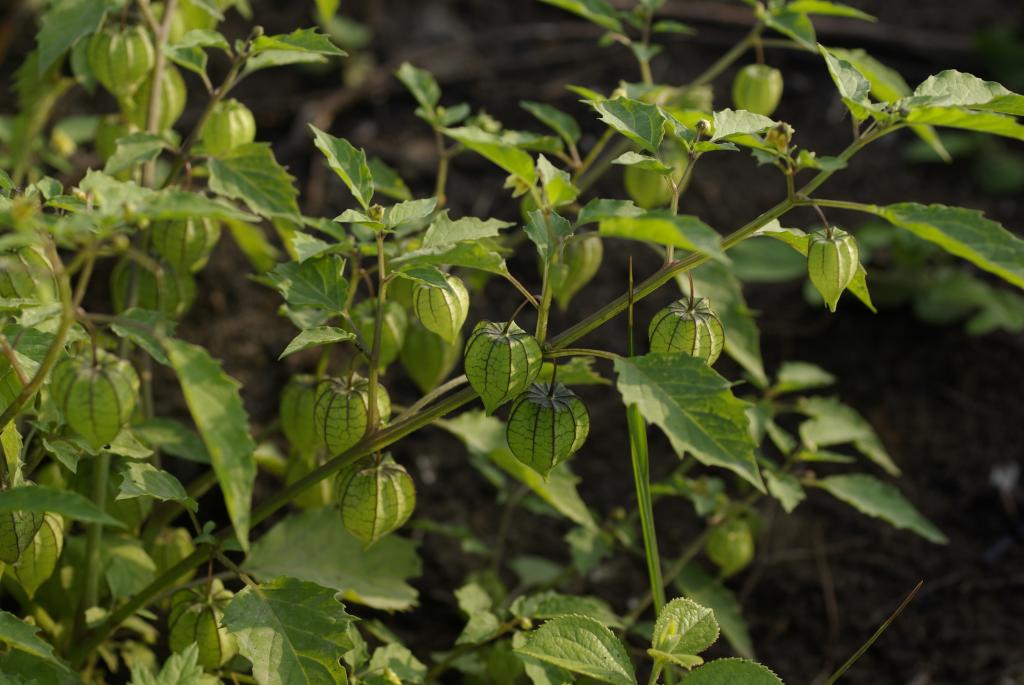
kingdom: Plantae
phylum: Tracheophyta
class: Magnoliopsida
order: Solanales
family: Solanaceae
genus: Physalis
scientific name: Physalis angulata
